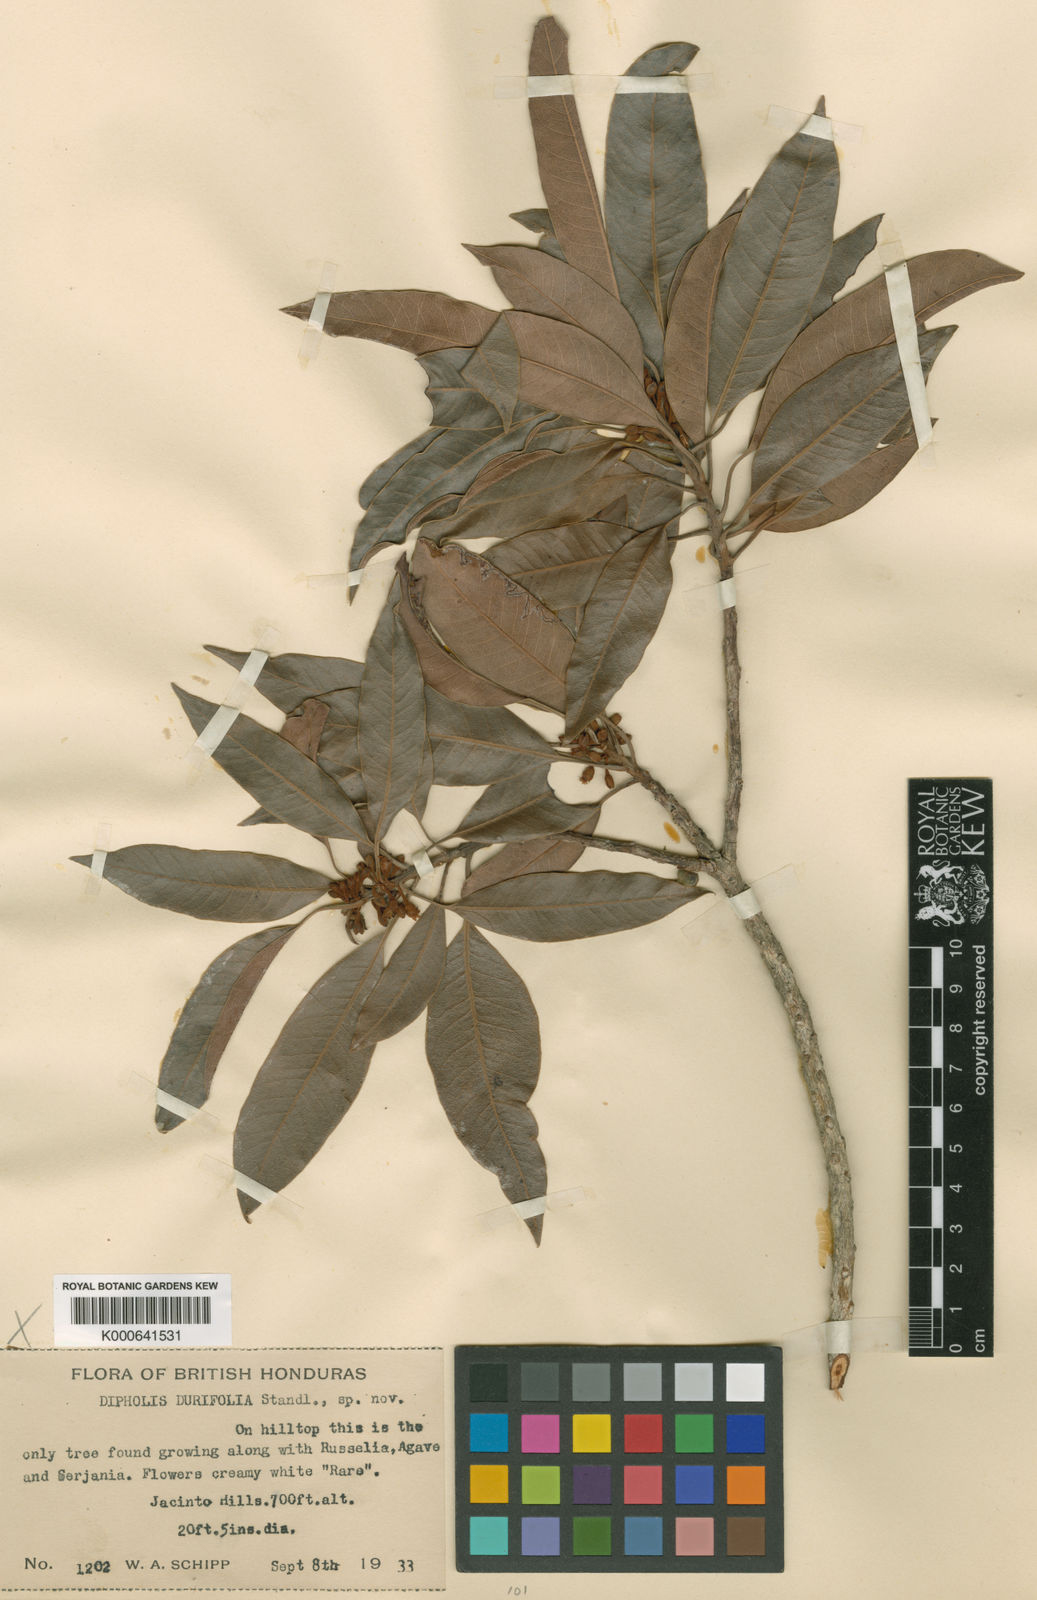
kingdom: Plantae
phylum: Tracheophyta
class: Magnoliopsida
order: Ericales
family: Sapotaceae
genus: Sideroxylon
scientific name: Sideroxylon durifolium
